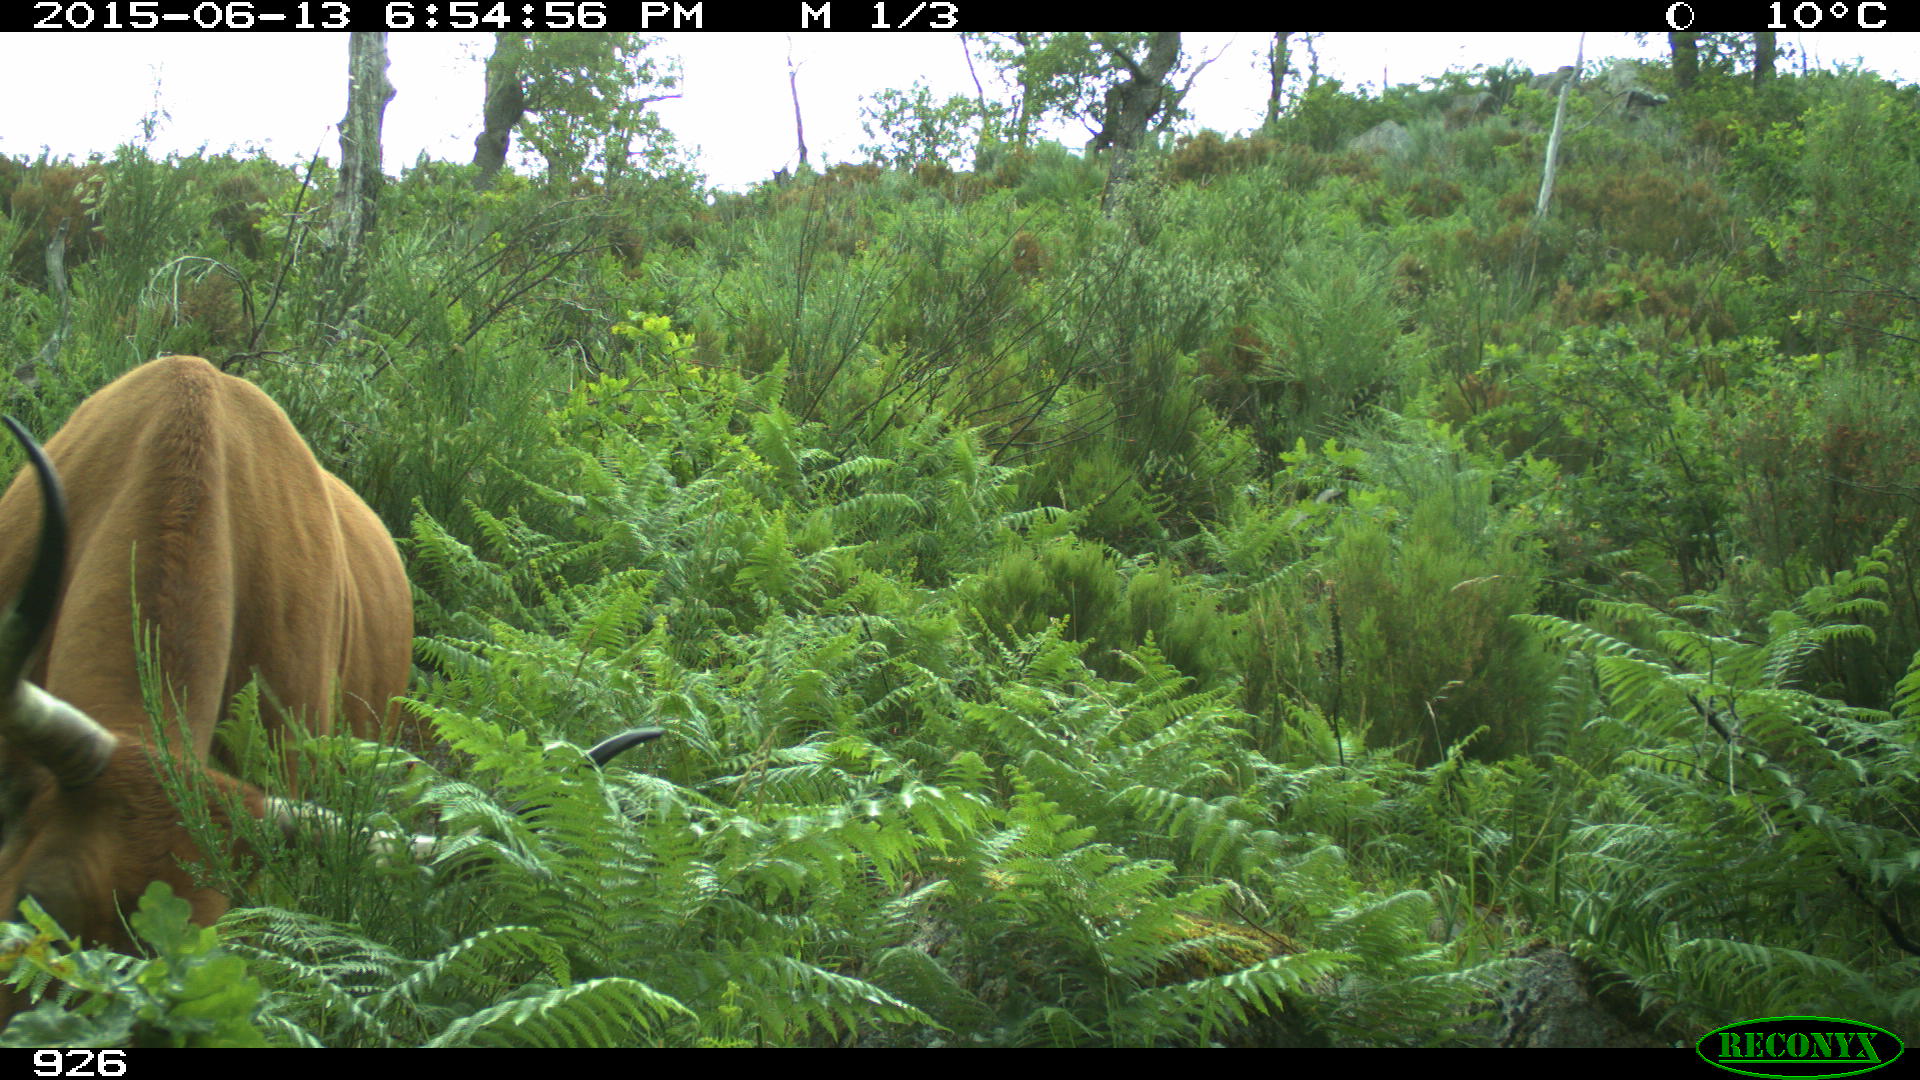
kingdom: Animalia
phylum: Chordata
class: Mammalia
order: Artiodactyla
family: Bovidae
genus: Bos
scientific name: Bos taurus
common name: Domesticated cattle
